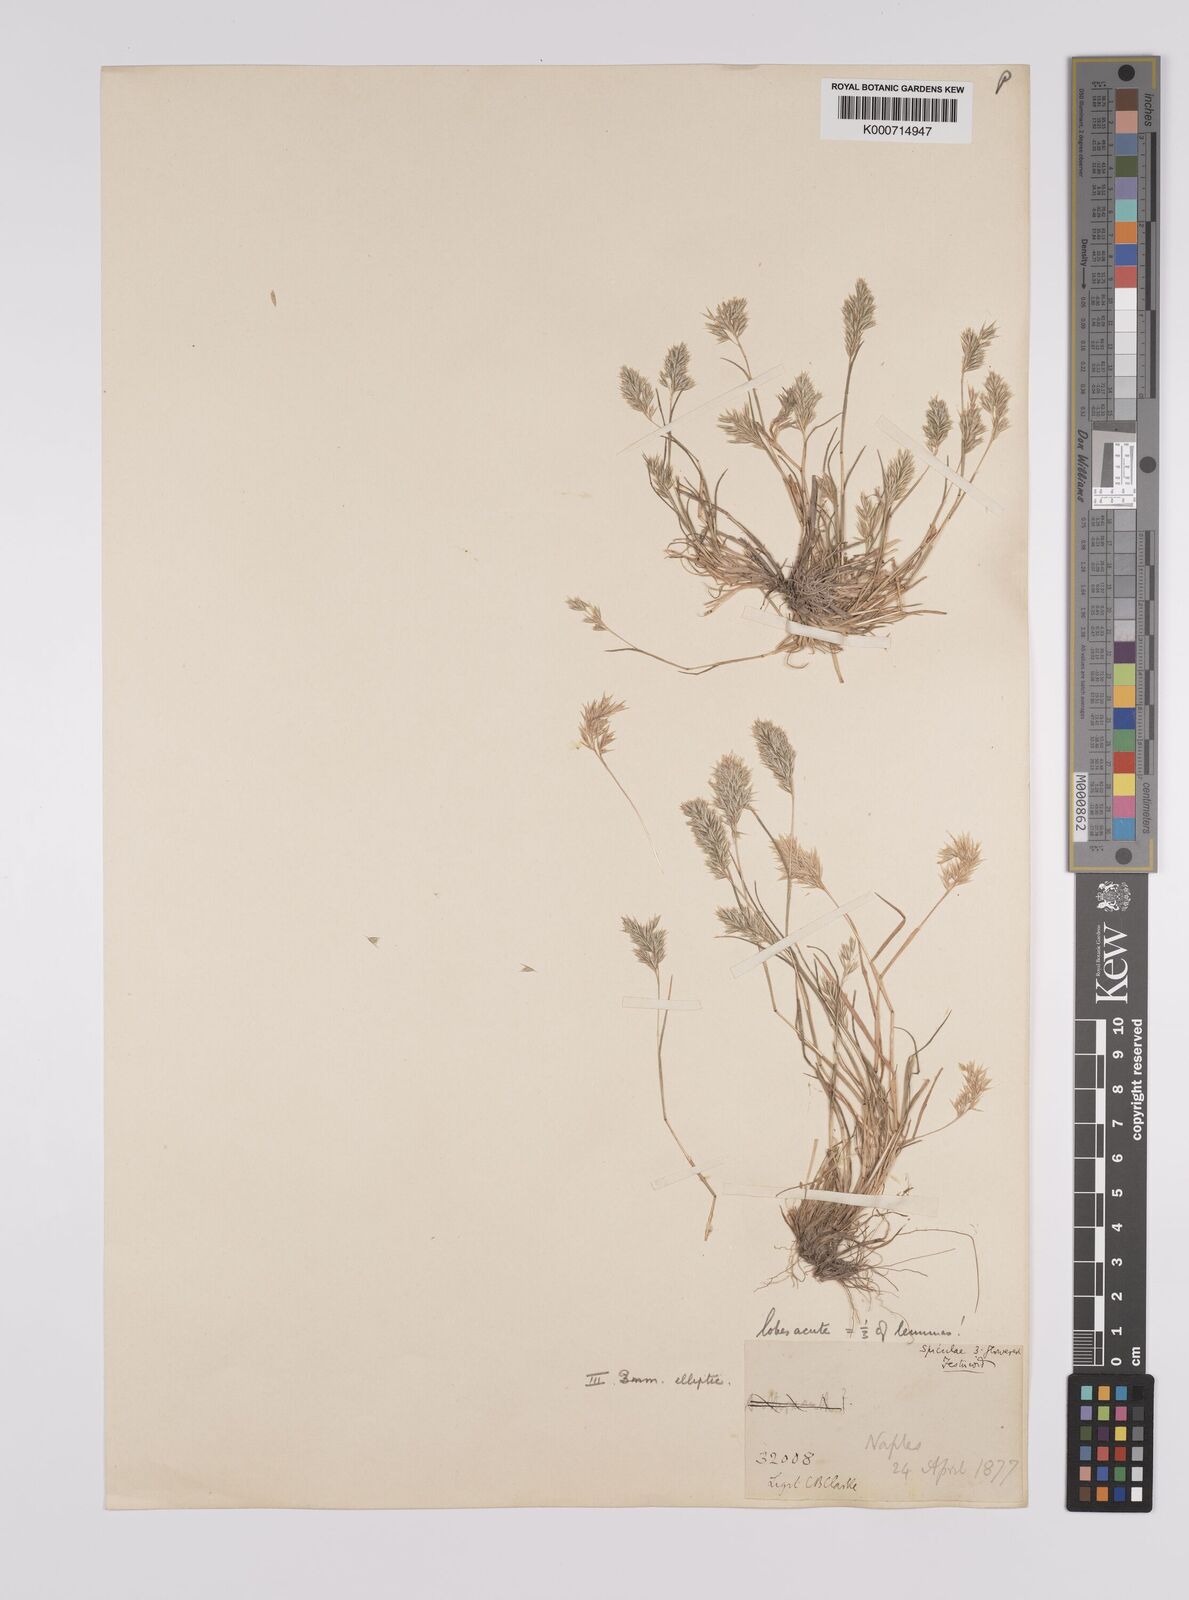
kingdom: Plantae
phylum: Tracheophyta
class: Liliopsida
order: Poales
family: Poaceae
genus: Schismus
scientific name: Schismus arabicus
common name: Arabian schismus
